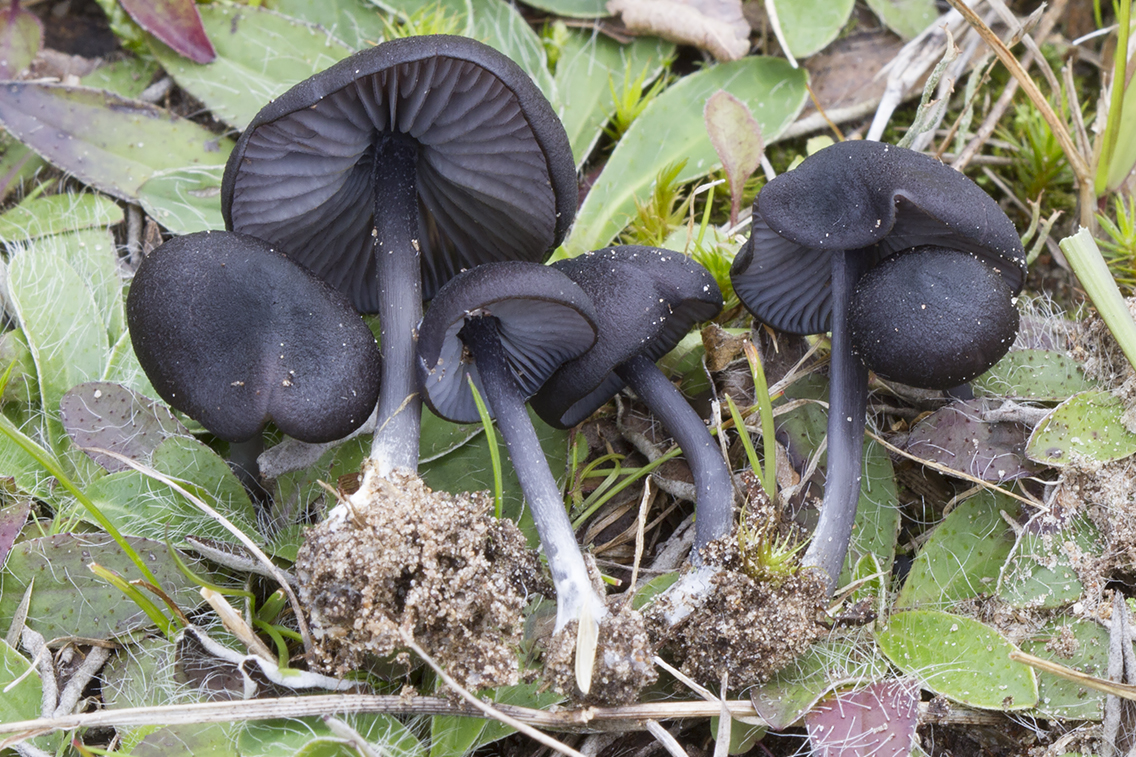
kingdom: Fungi
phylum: Basidiomycota
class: Agaricomycetes
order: Agaricales
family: Entolomataceae
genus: Entoloma
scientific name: Entoloma chalybeum
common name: blåbladet rødblad
